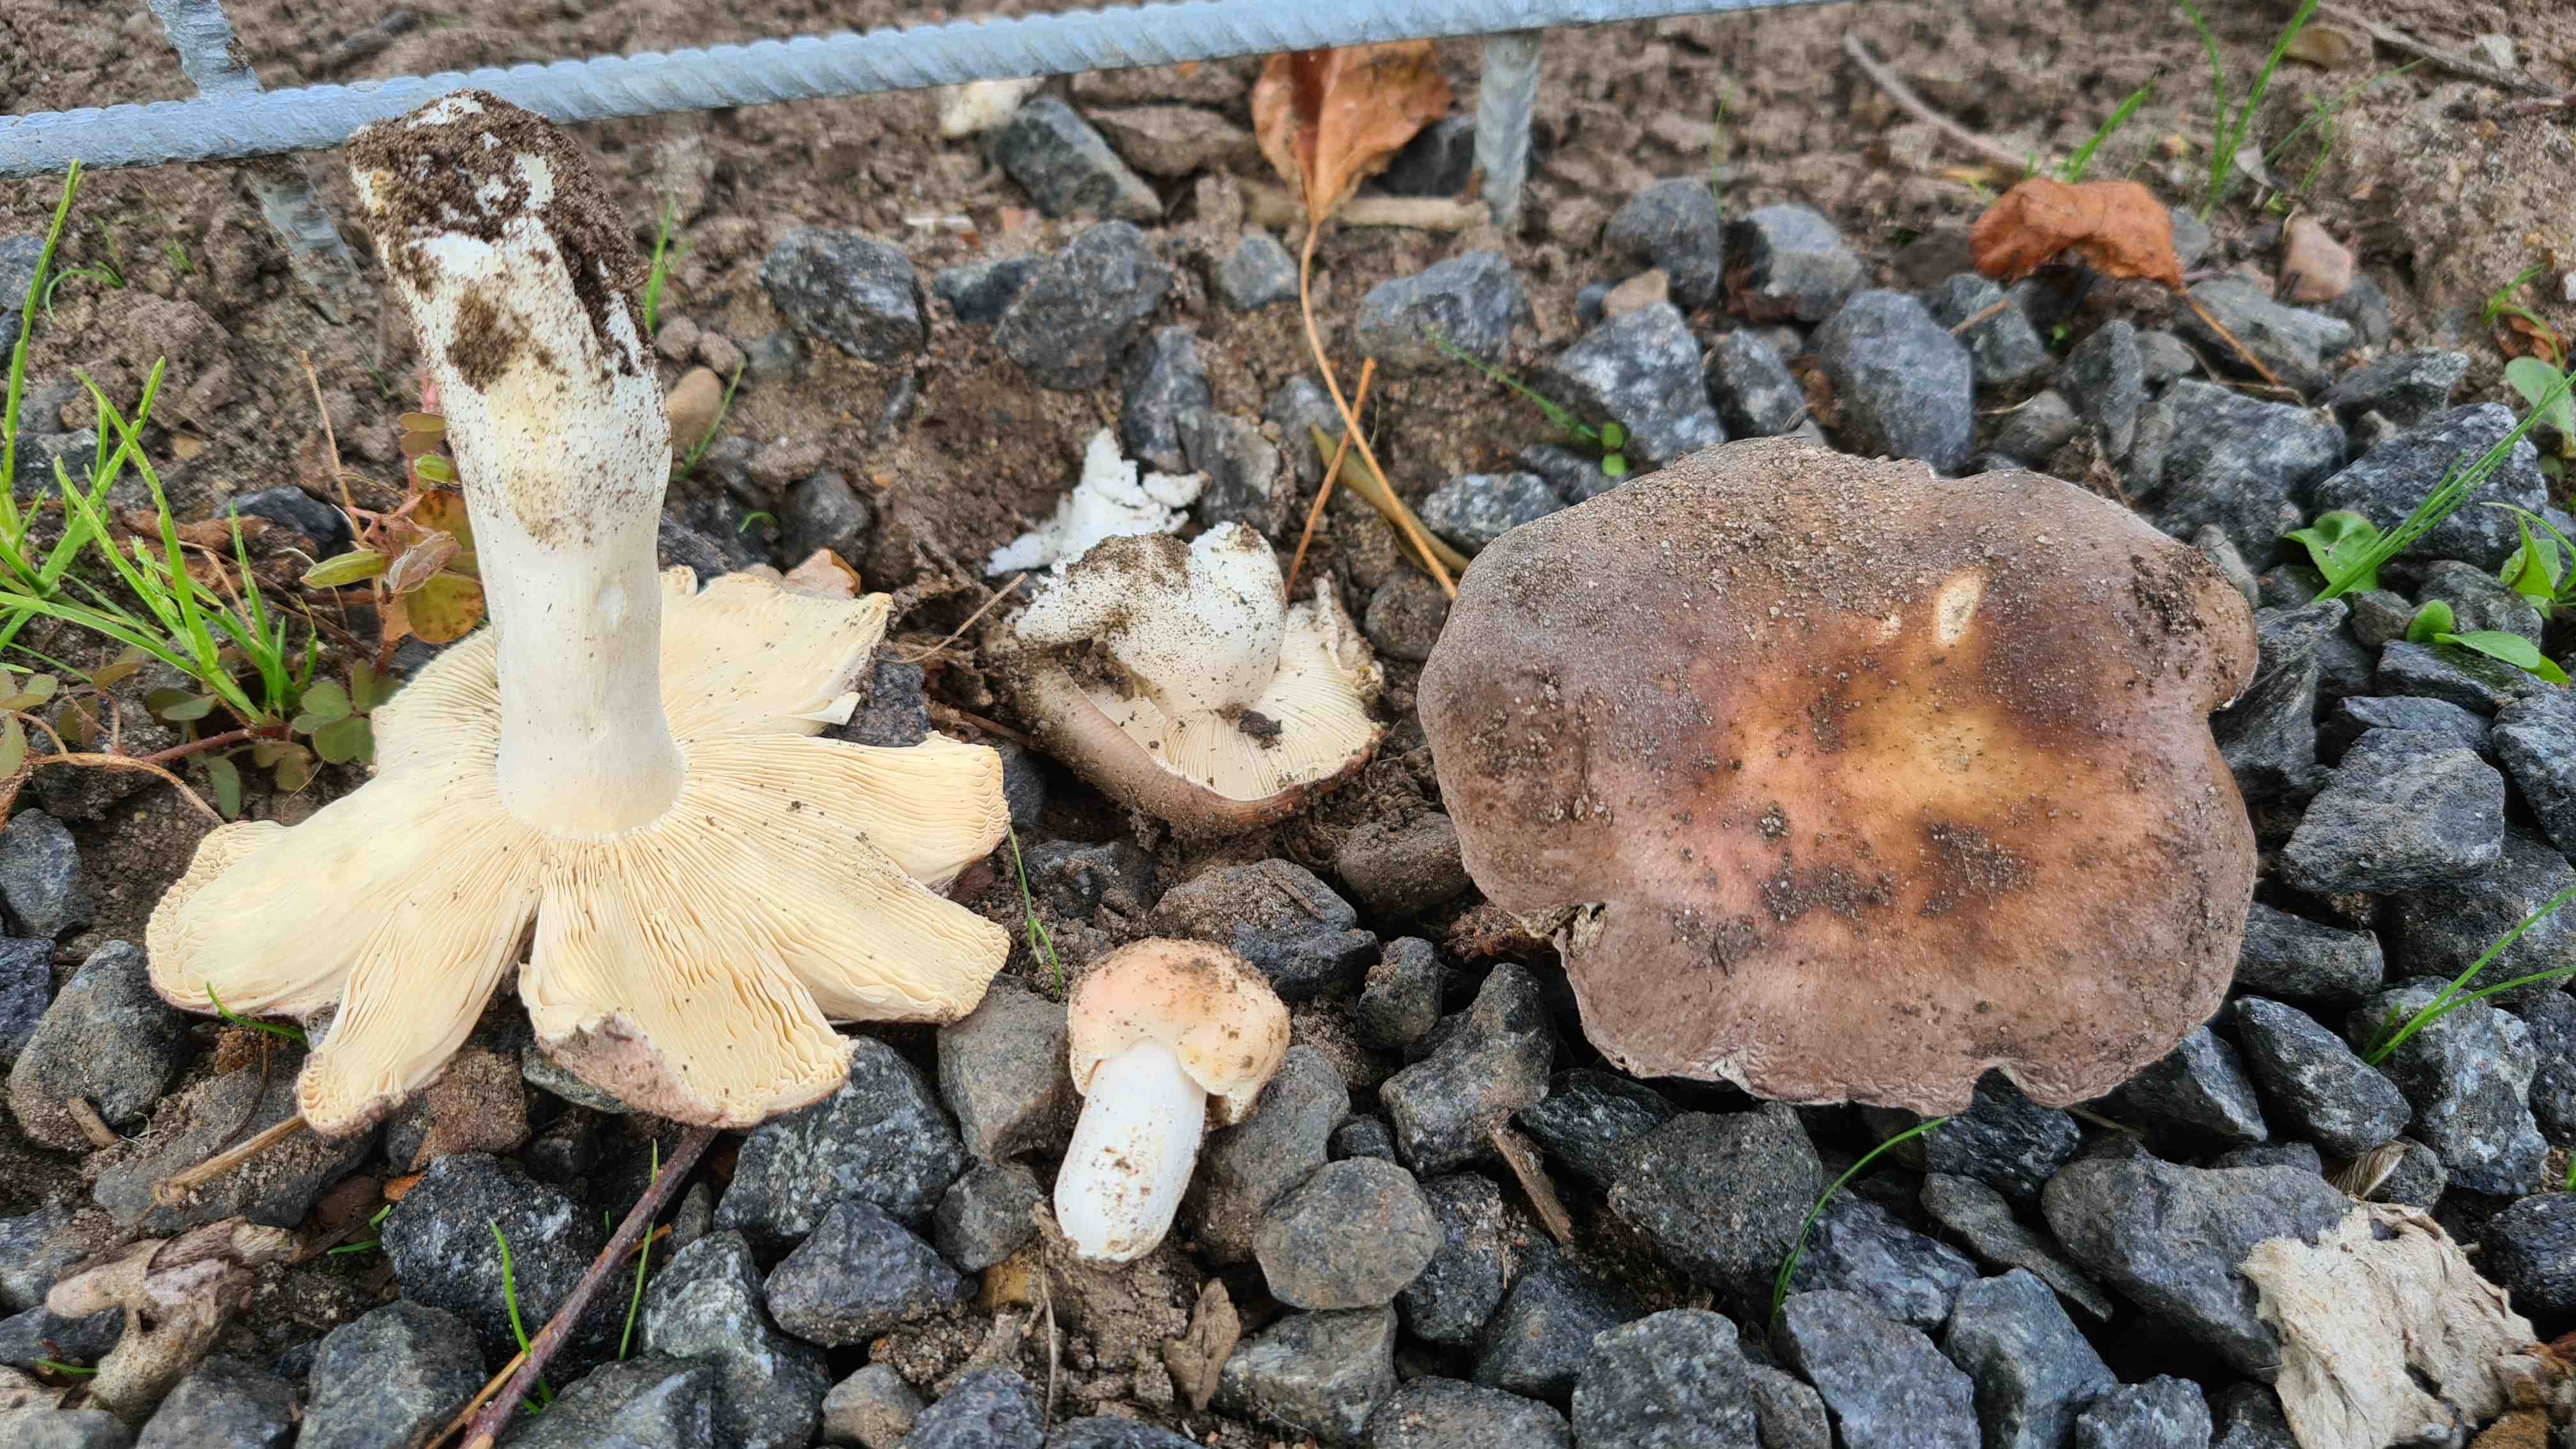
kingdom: Fungi
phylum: Basidiomycota
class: Agaricomycetes
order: Russulales
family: Russulaceae
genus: Russula
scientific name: Russula
